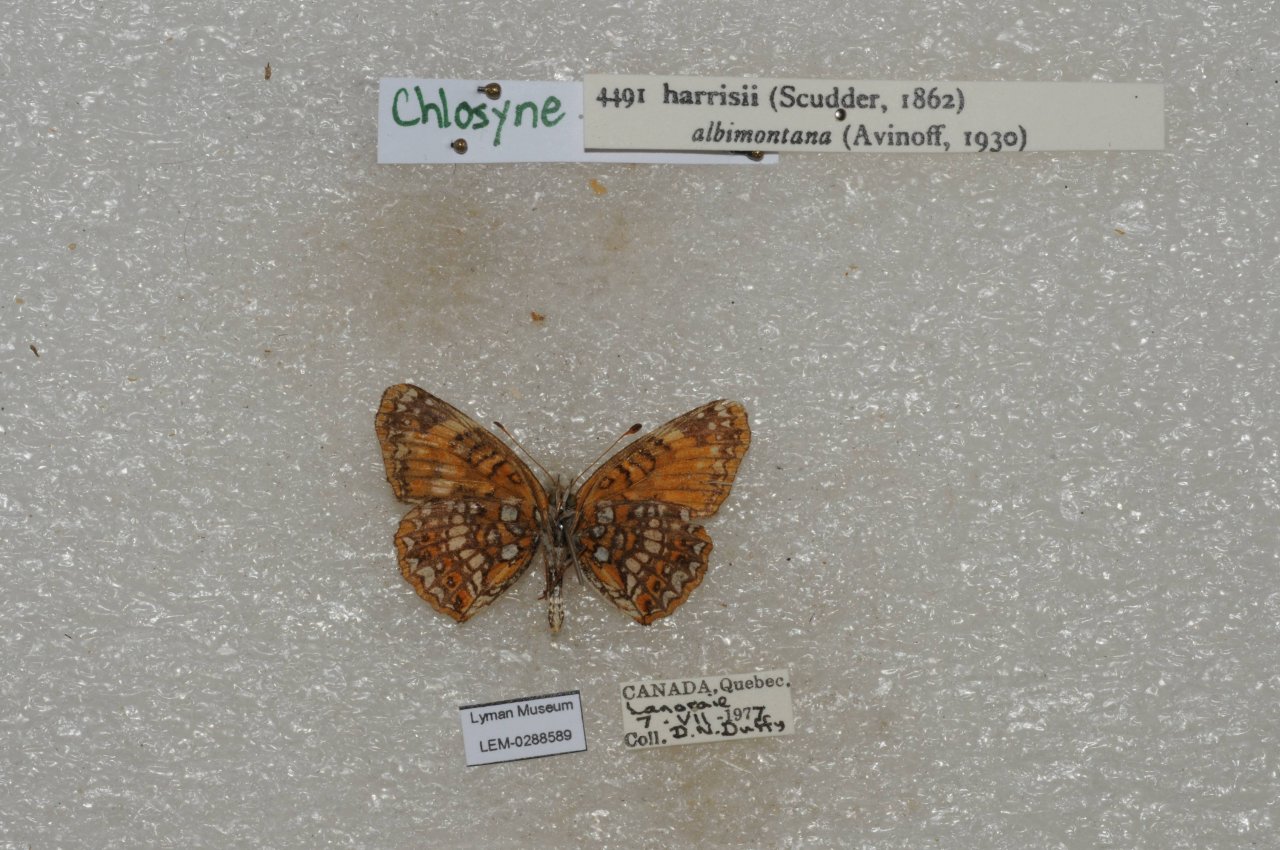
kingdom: Animalia
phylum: Arthropoda
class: Insecta
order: Lepidoptera
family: Nymphalidae
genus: Chlosyne
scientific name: Chlosyne harrisii
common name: Harris's Checkerspot
